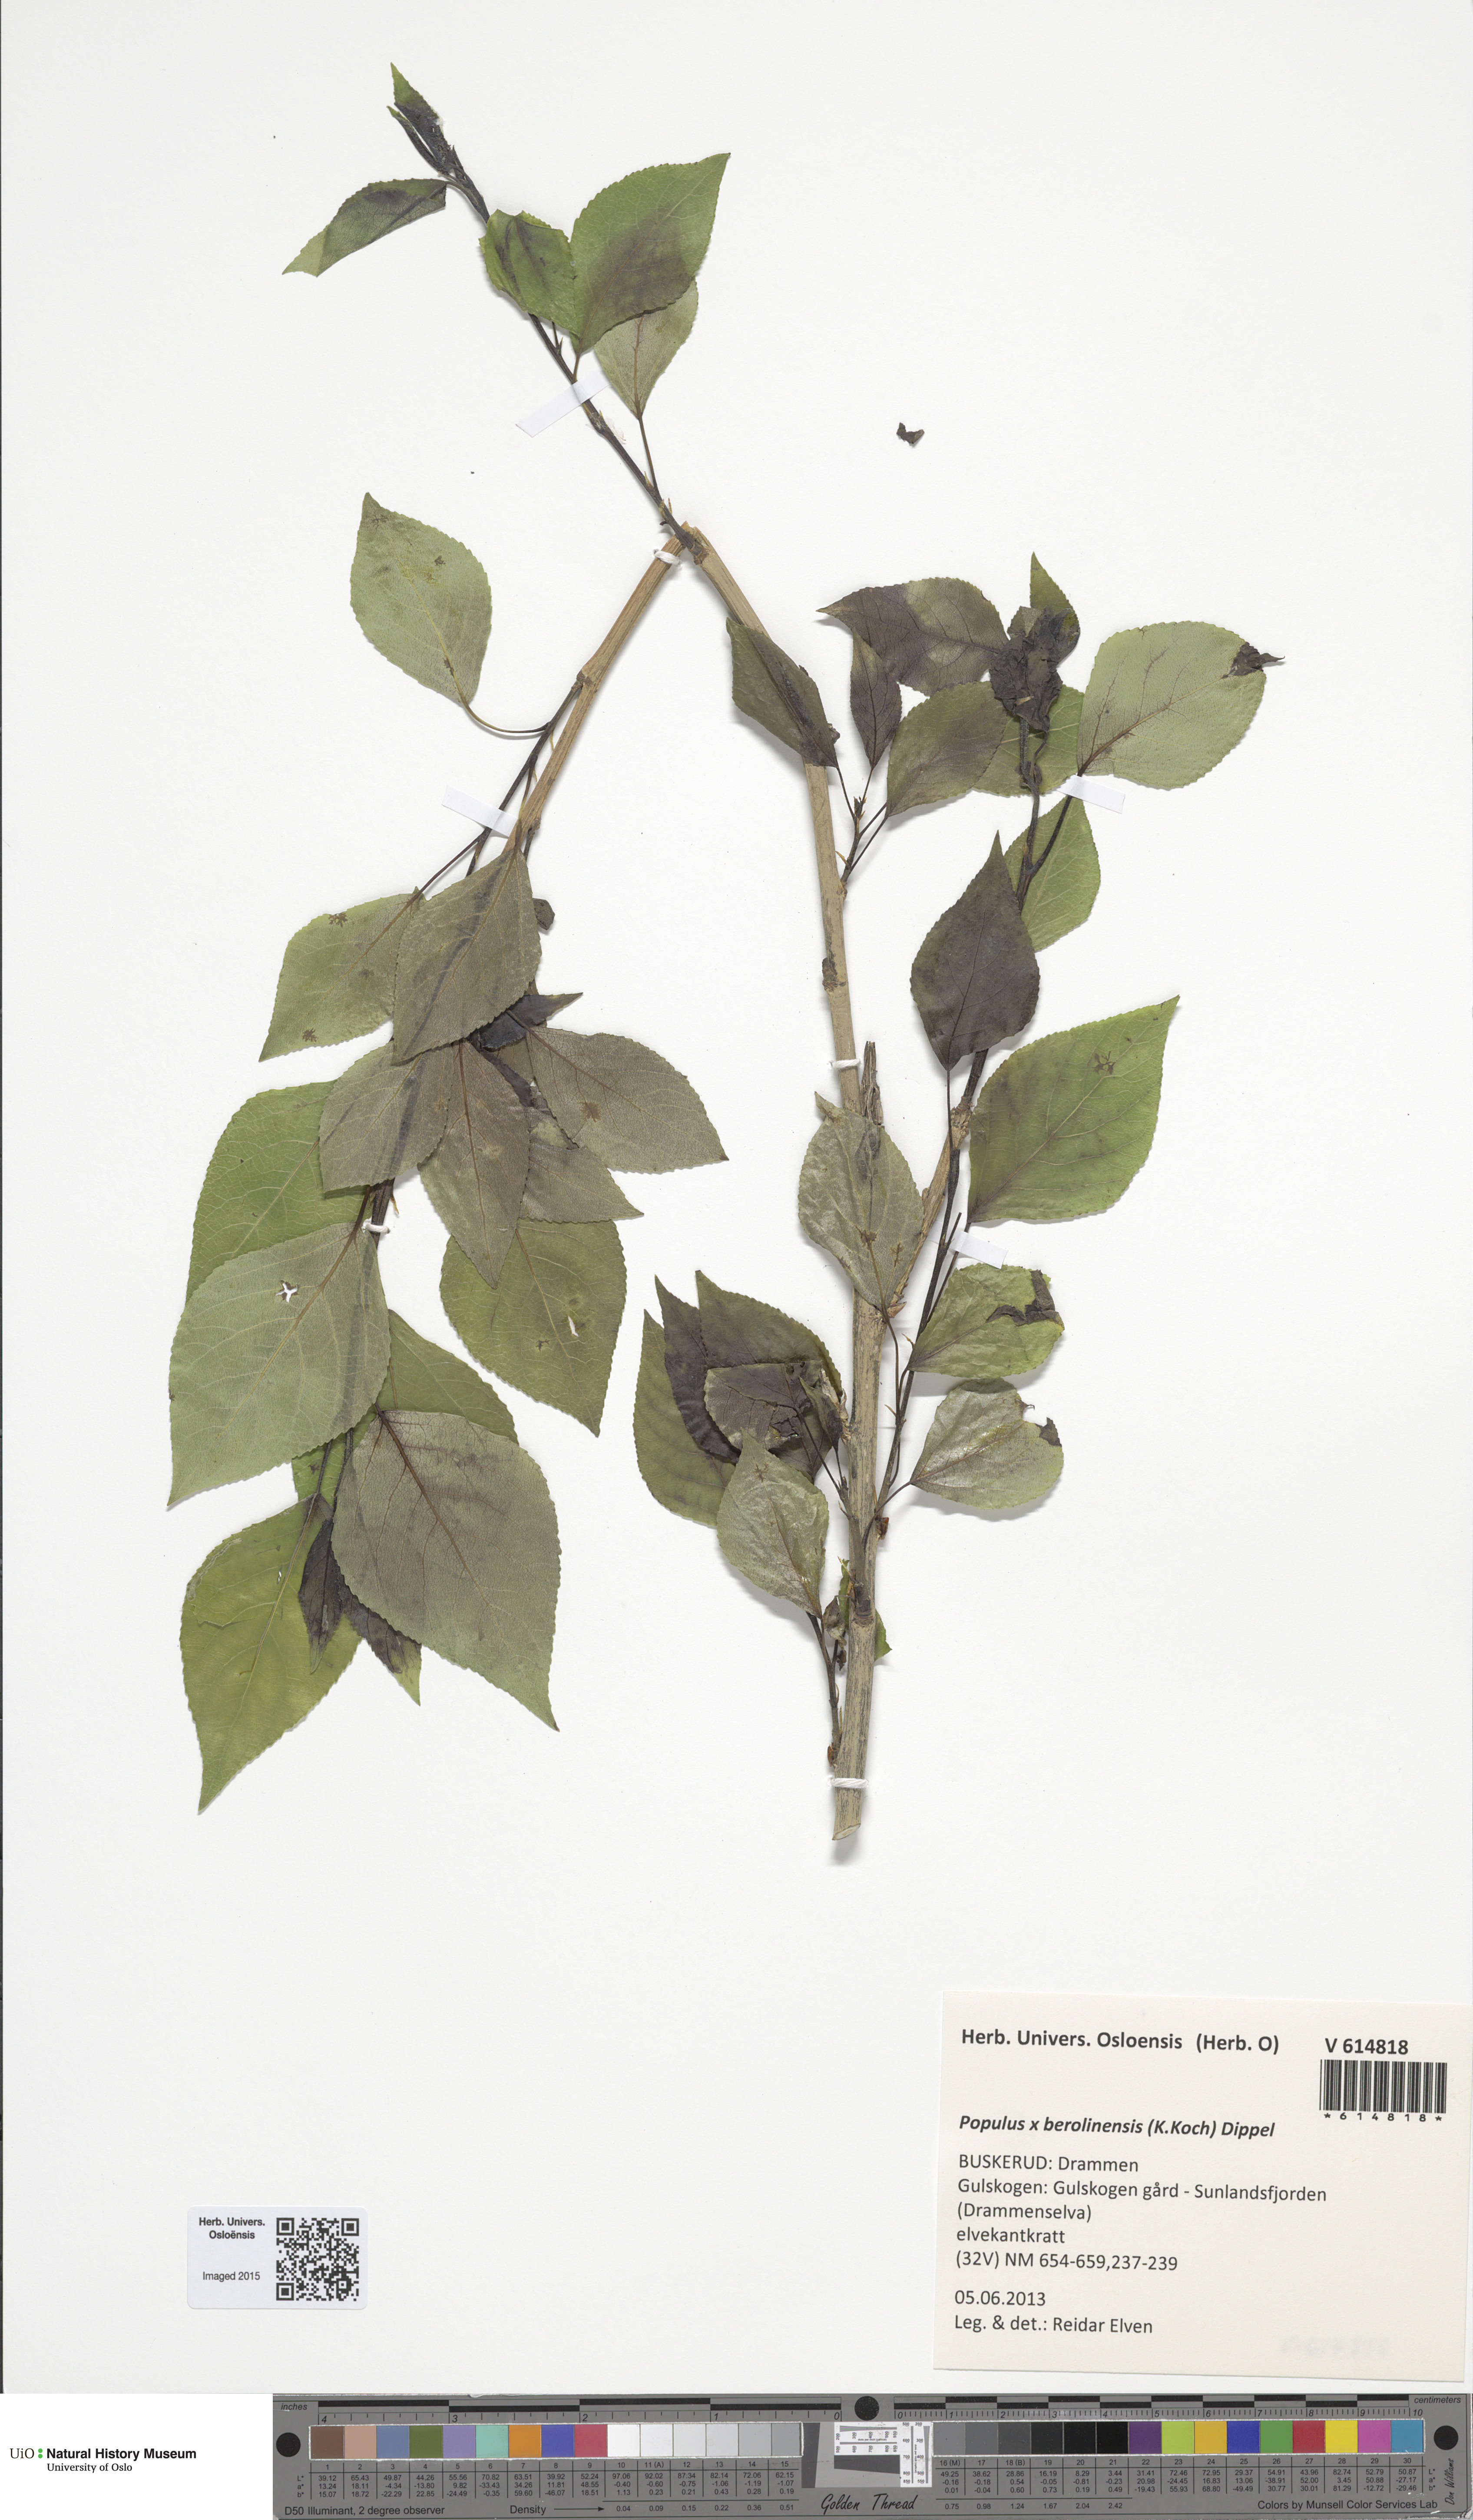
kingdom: Plantae
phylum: Tracheophyta
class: Magnoliopsida
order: Malpighiales
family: Salicaceae
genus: Populus
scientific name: Populus berolinensis
